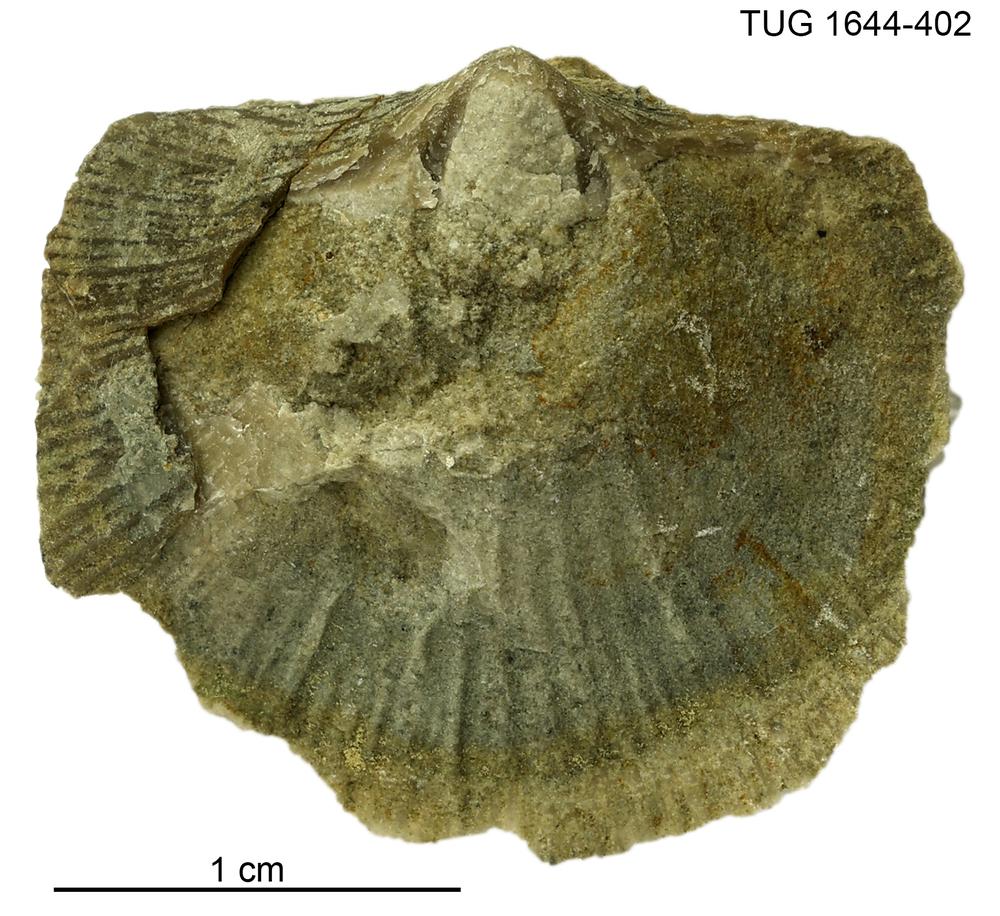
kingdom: Animalia
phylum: Brachiopoda
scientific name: Brachiopoda
